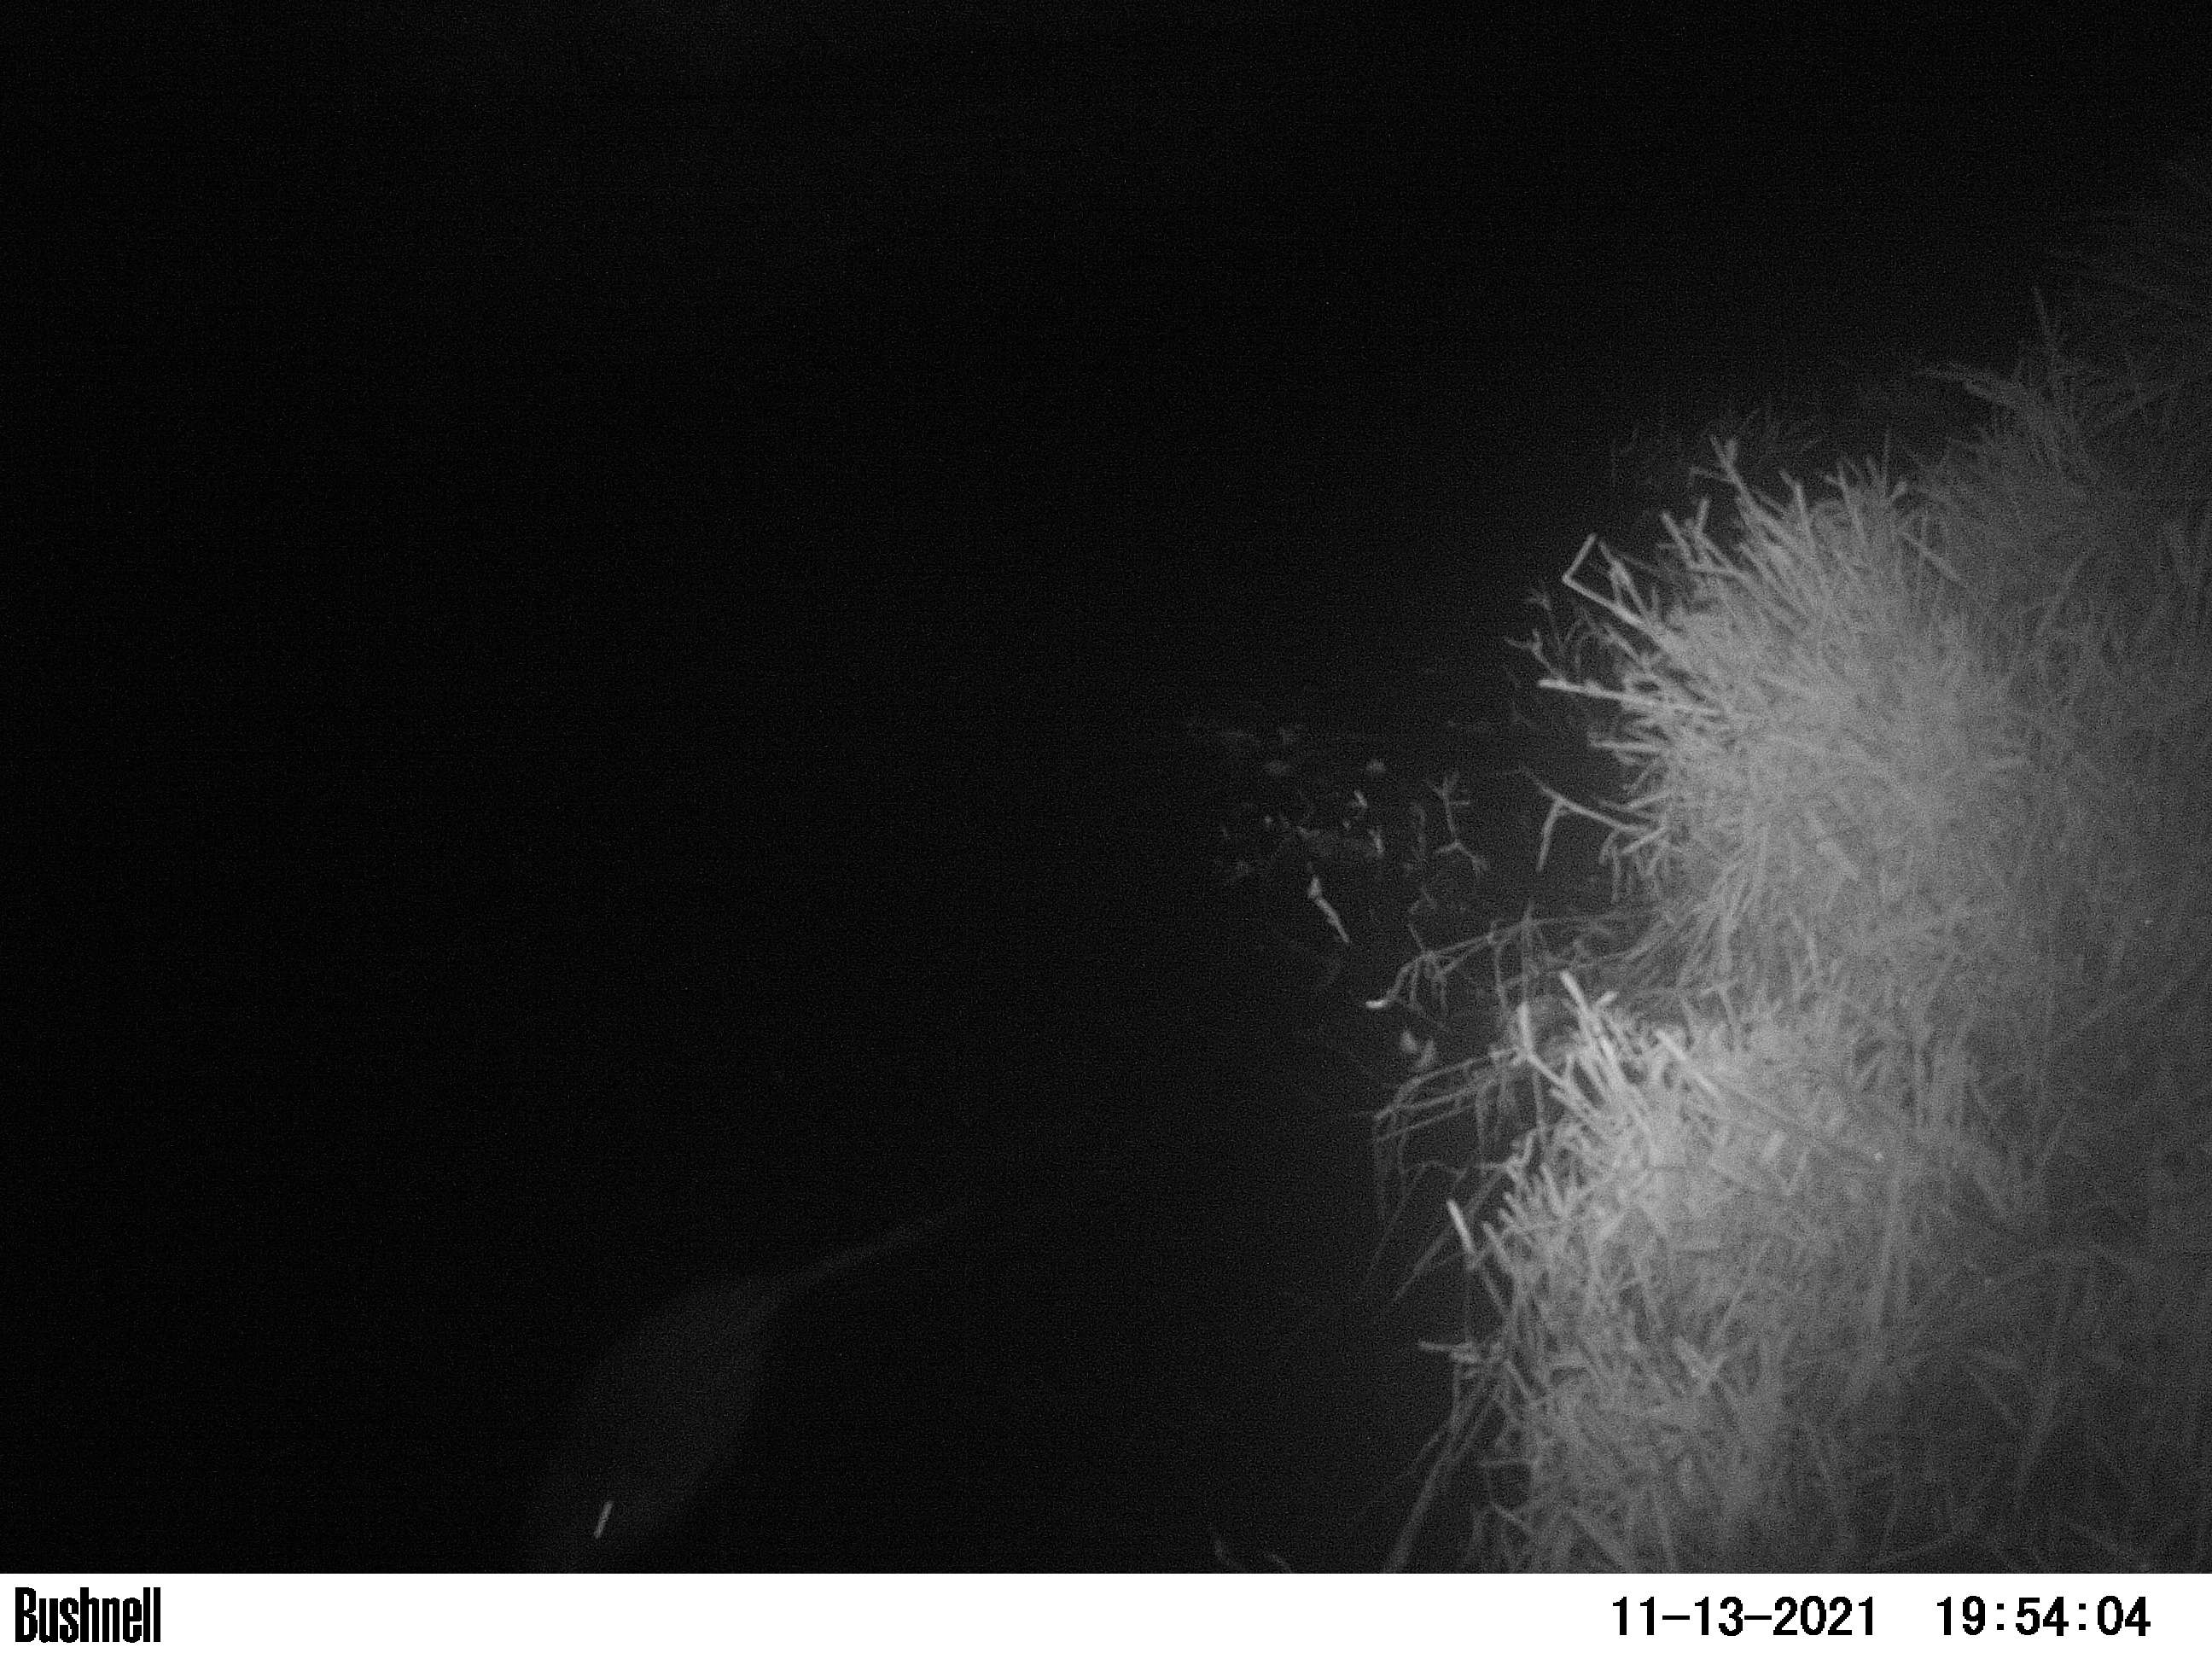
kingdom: Animalia
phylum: Chordata
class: Mammalia
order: Rodentia
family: Cricetidae
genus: Ondatra
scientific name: Ondatra zibethicus
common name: Muskrat
